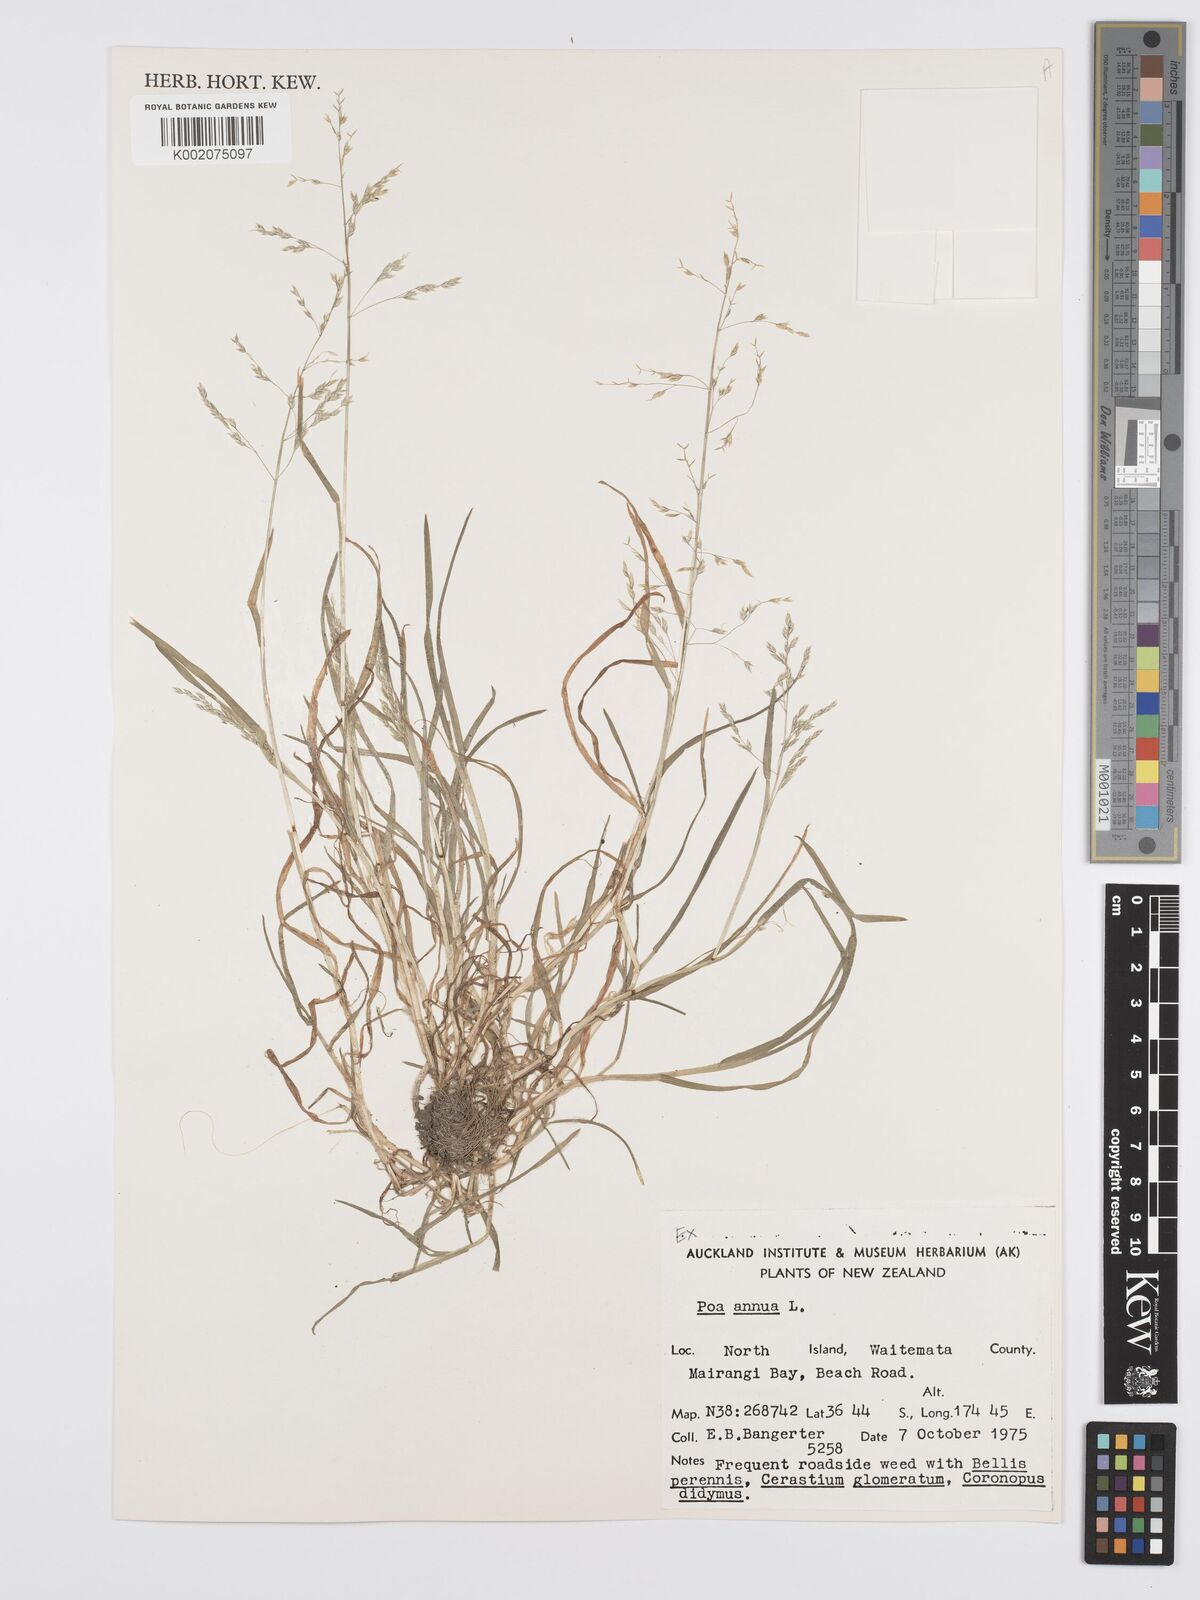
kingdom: Plantae
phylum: Tracheophyta
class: Liliopsida
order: Poales
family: Poaceae
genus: Poa
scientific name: Poa annua
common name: Annual bluegrass
